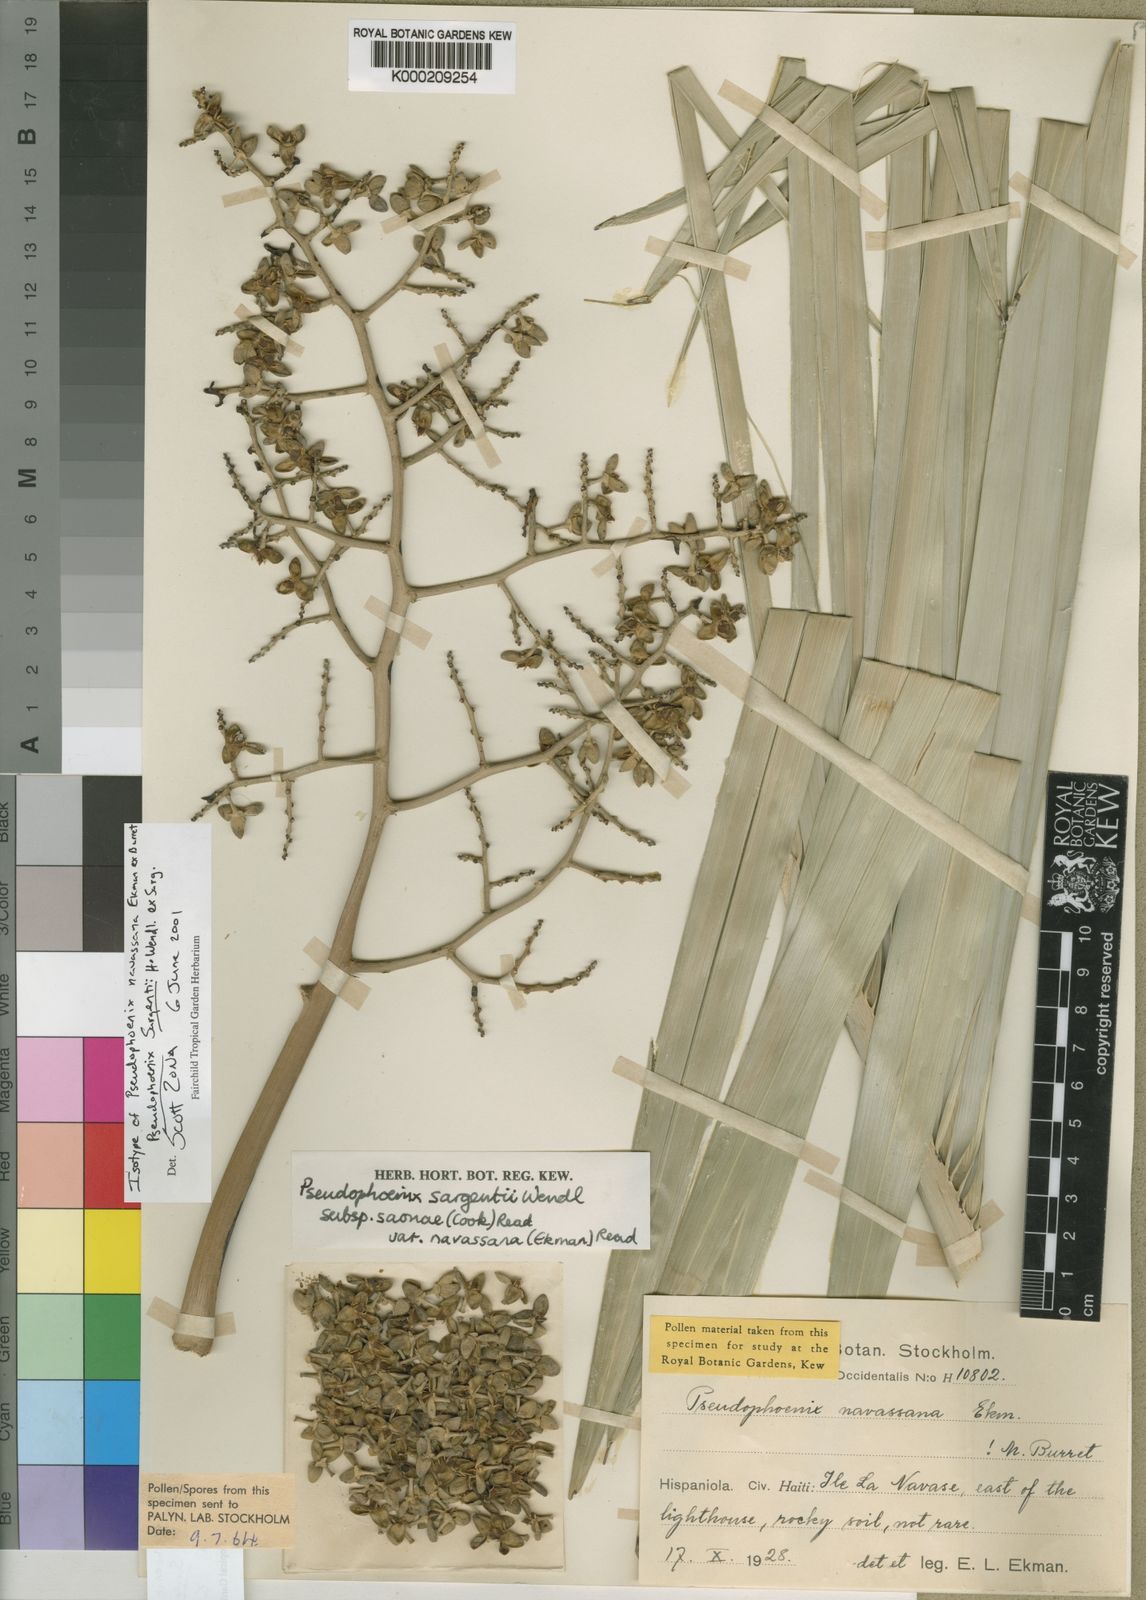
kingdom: Plantae
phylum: Tracheophyta
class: Liliopsida
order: Arecales
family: Arecaceae
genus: Pseudophoenix
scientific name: Pseudophoenix sargentii
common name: Buccaneer palm
